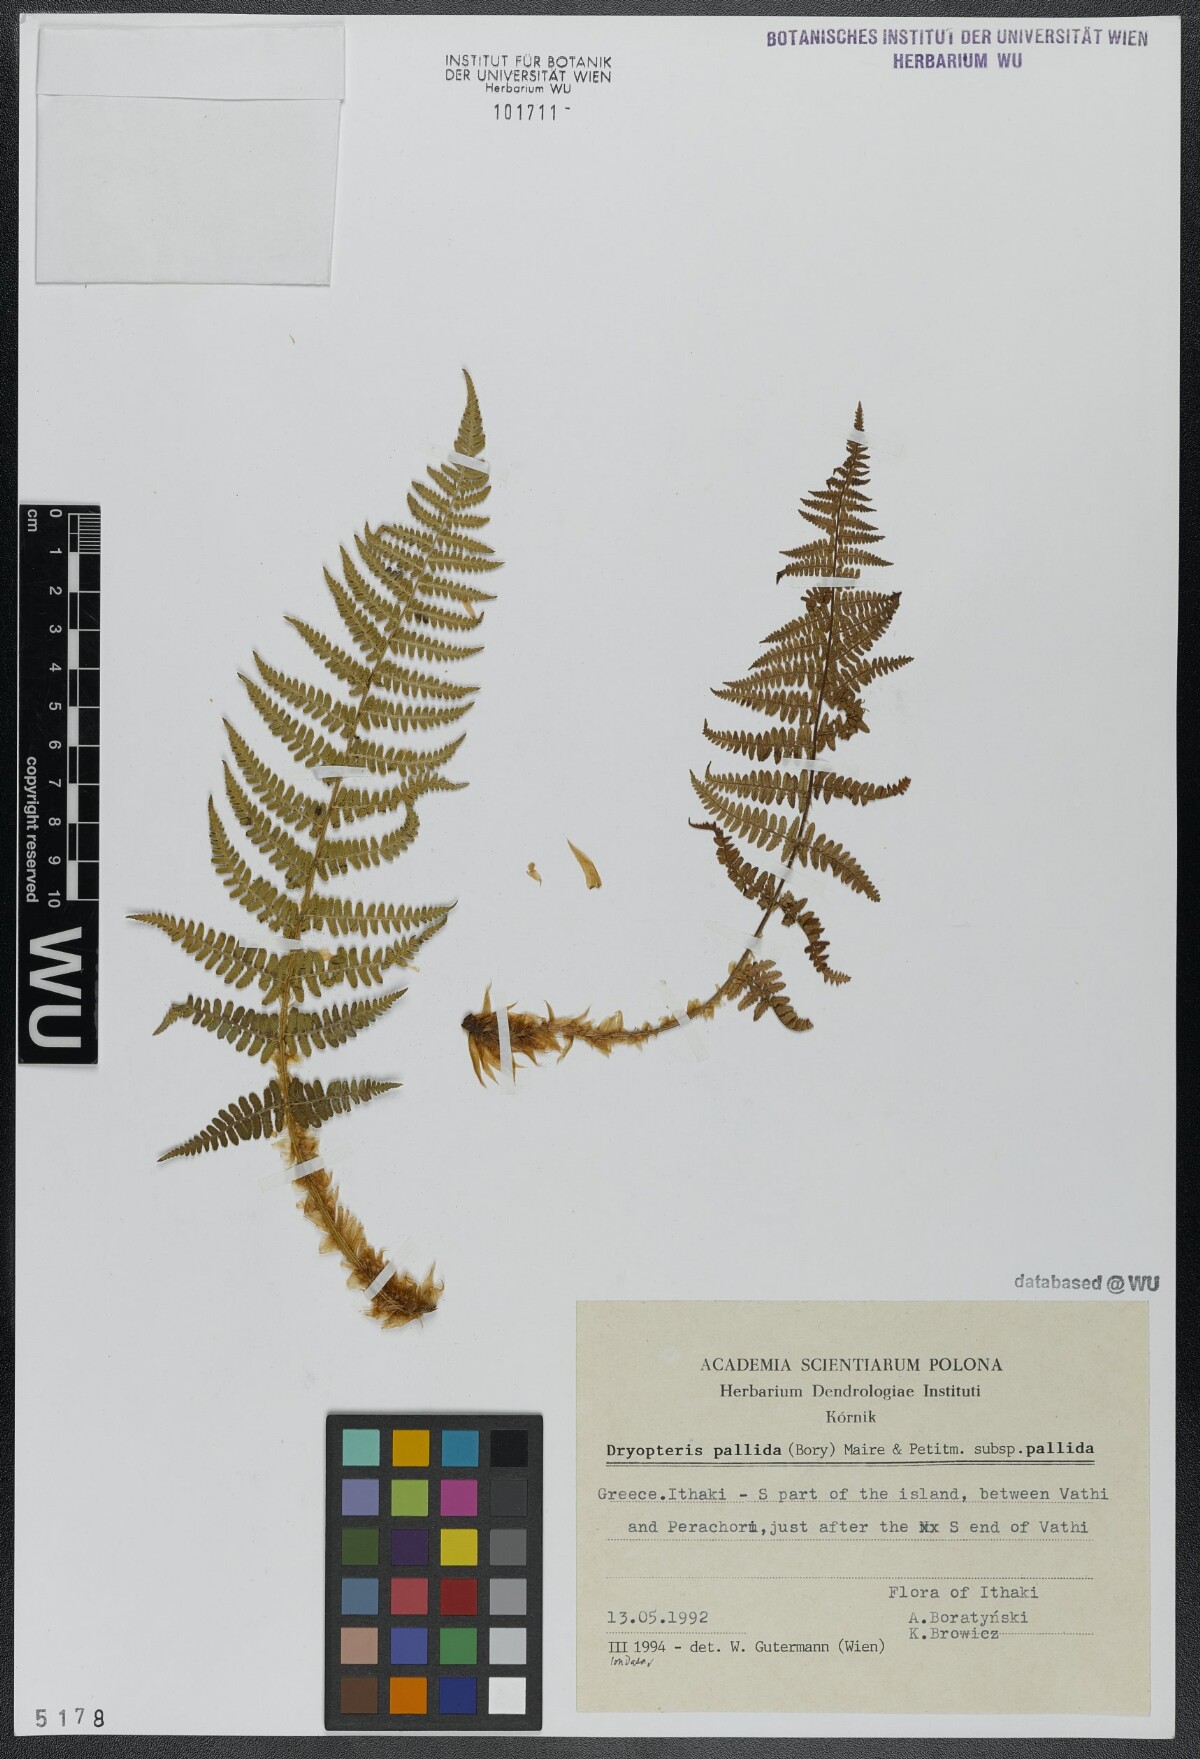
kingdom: Plantae
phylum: Tracheophyta
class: Polypodiopsida
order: Polypodiales
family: Dryopteridaceae
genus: Dryopteris
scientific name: Dryopteris pallida
